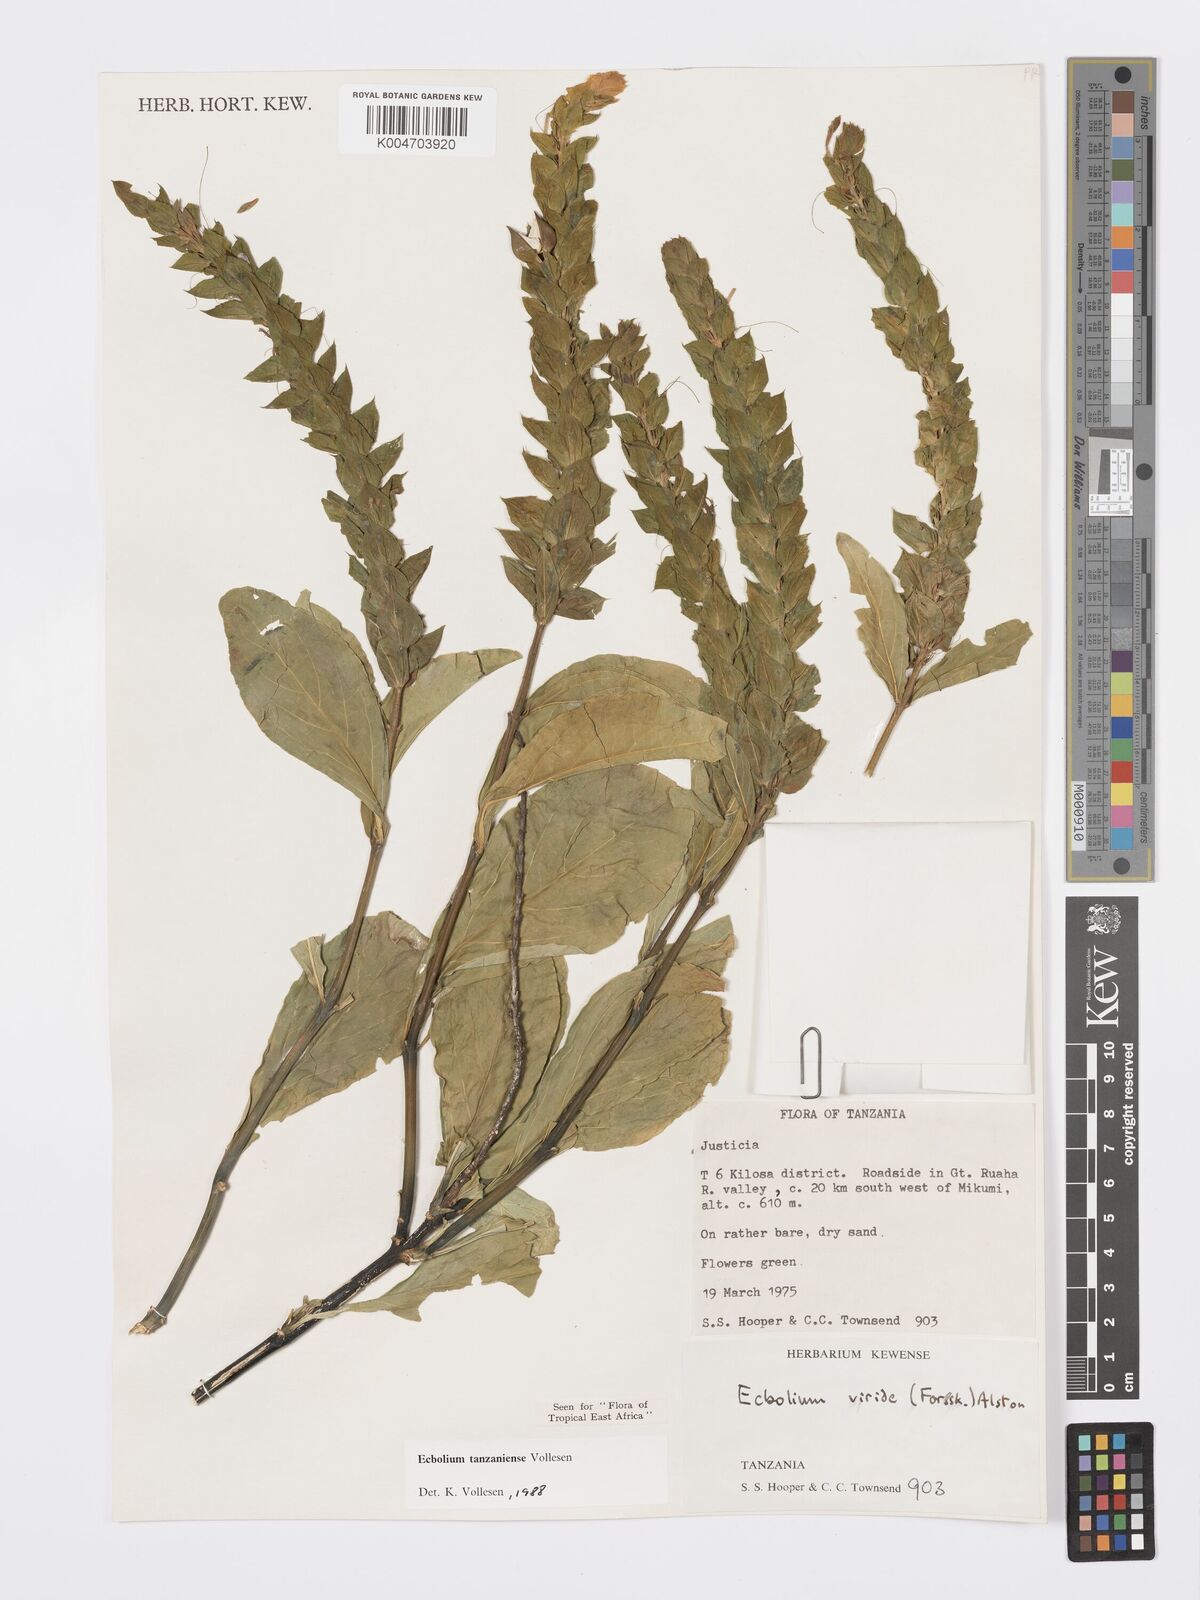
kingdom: Plantae
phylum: Tracheophyta
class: Magnoliopsida
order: Lamiales
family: Acanthaceae
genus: Ecbolium
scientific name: Ecbolium tanzaniense
